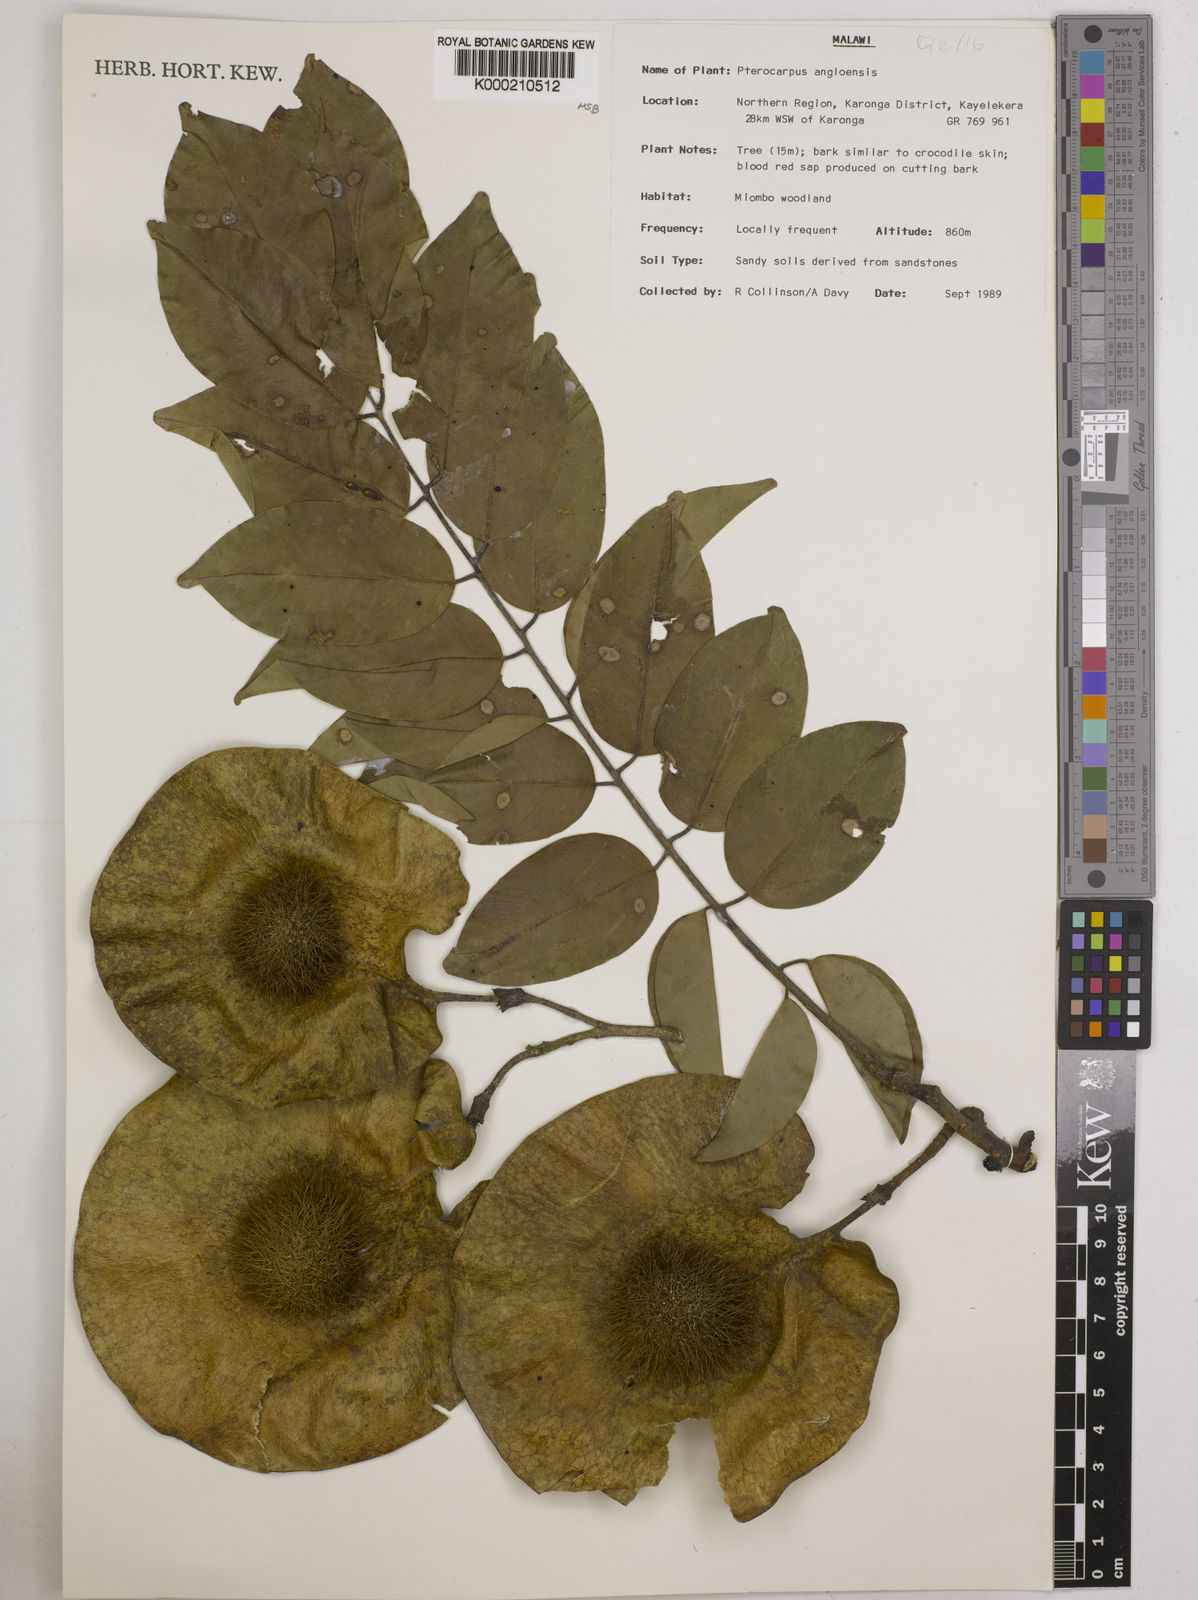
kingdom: Plantae
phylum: Tracheophyta
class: Magnoliopsida
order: Fabales
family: Fabaceae
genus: Pterocarpus
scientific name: Pterocarpus angolensis
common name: Bloodwood tree
